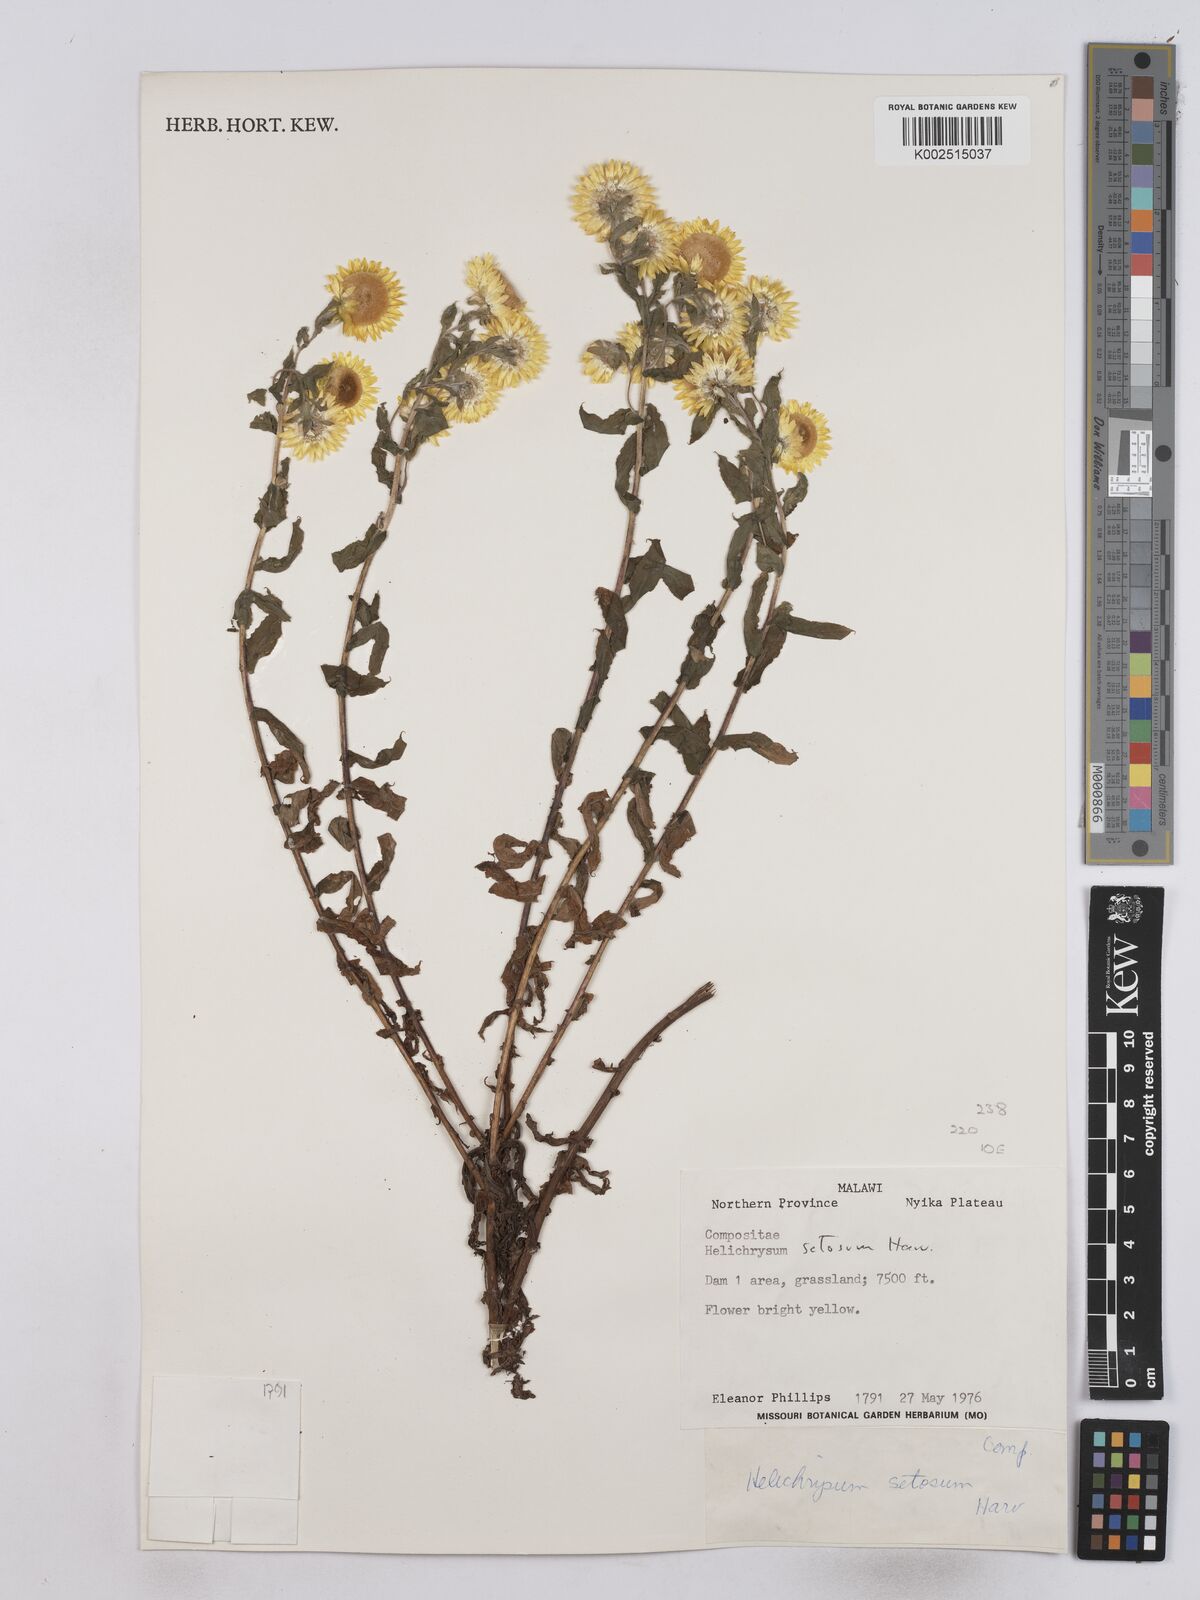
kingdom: Plantae
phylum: Tracheophyta
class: Magnoliopsida
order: Asterales
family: Asteraceae
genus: Helichrysum
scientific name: Helichrysum setosum
